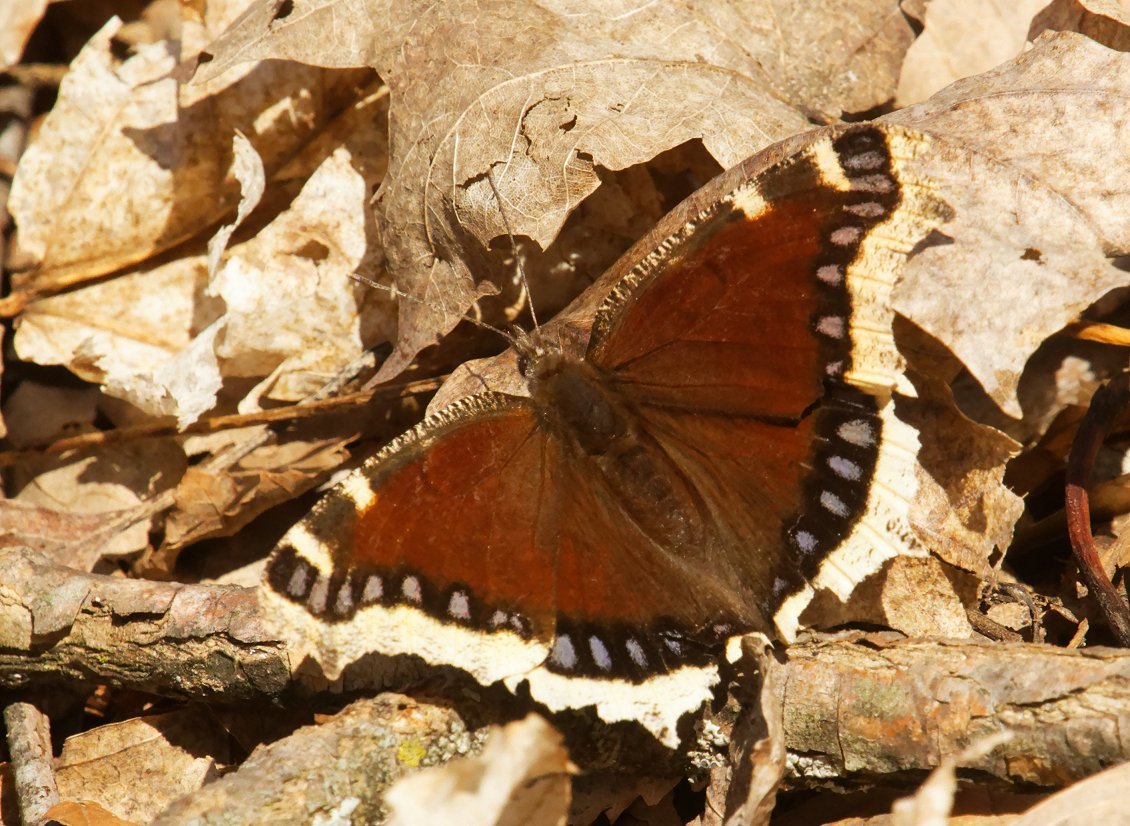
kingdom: Animalia
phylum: Arthropoda
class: Insecta
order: Lepidoptera
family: Nymphalidae
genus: Nymphalis
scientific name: Nymphalis antiopa
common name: Mourning Cloak
